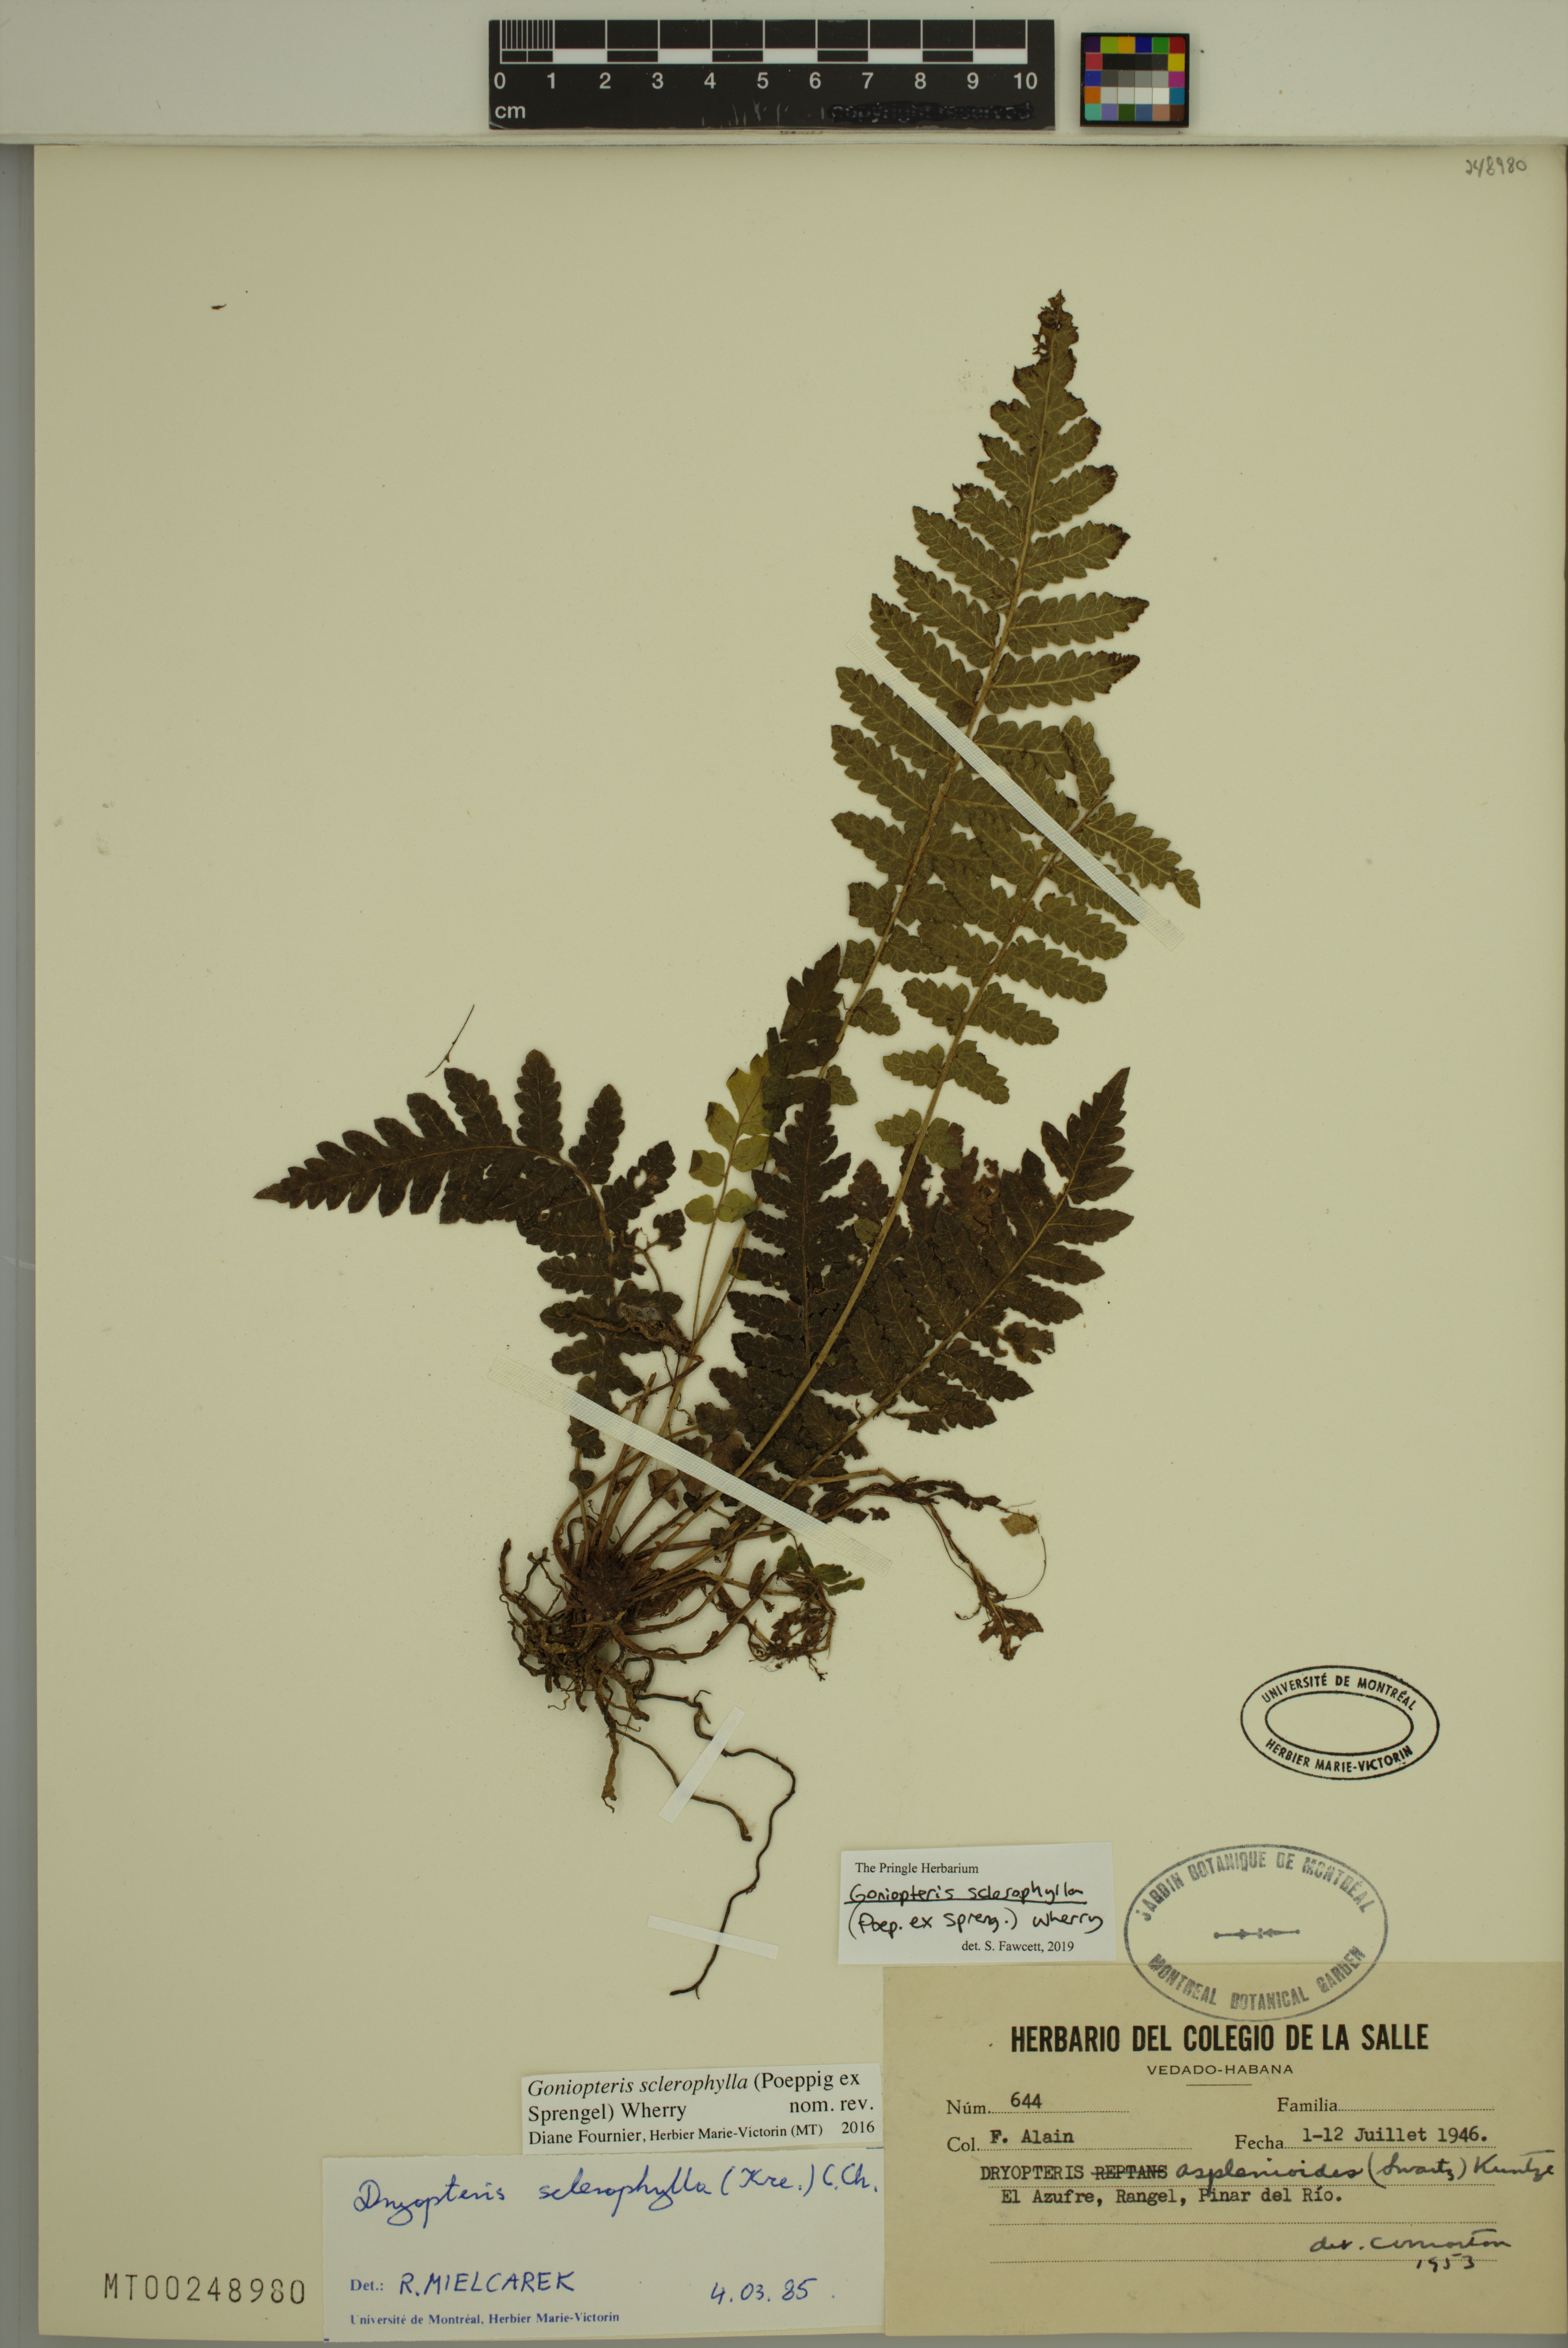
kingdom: Plantae
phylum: Tracheophyta
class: Polypodiopsida
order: Polypodiales
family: Thelypteridaceae
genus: Goniopteris
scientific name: Goniopteris sclerophylla
